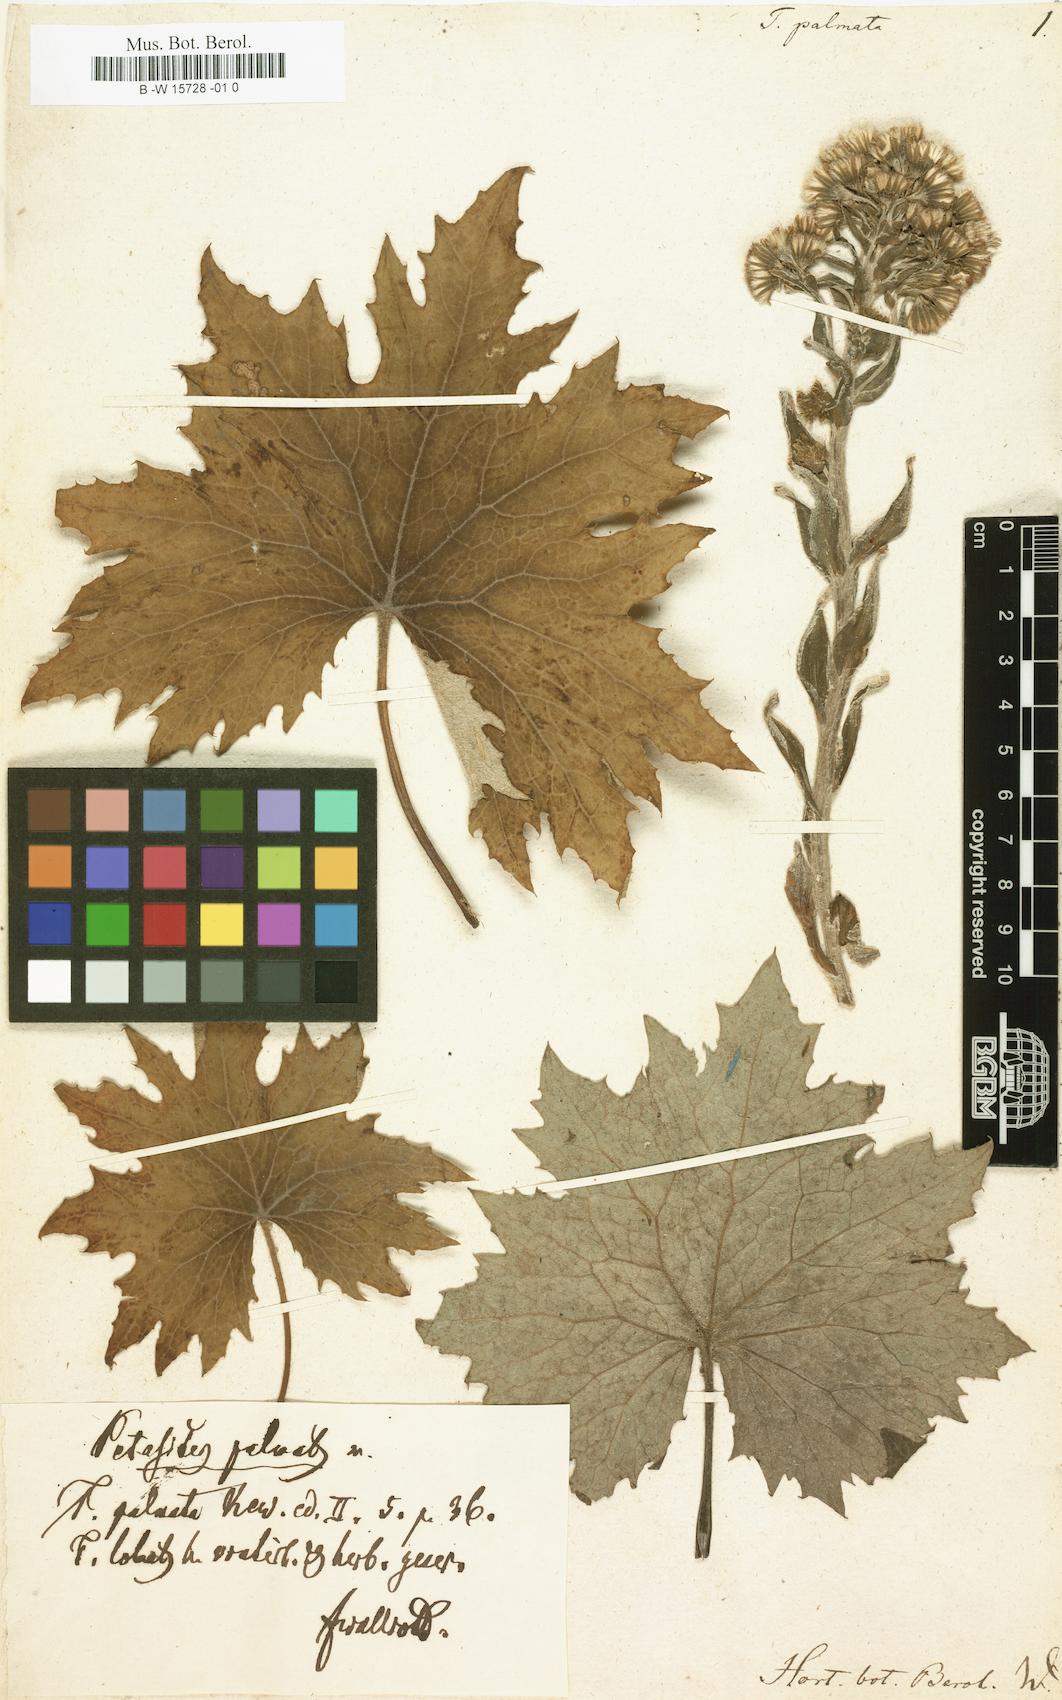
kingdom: Plantae
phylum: Tracheophyta
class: Magnoliopsida
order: Asterales
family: Asteraceae
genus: Petasites
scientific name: Petasites frigidus
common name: Arctic butterbur
